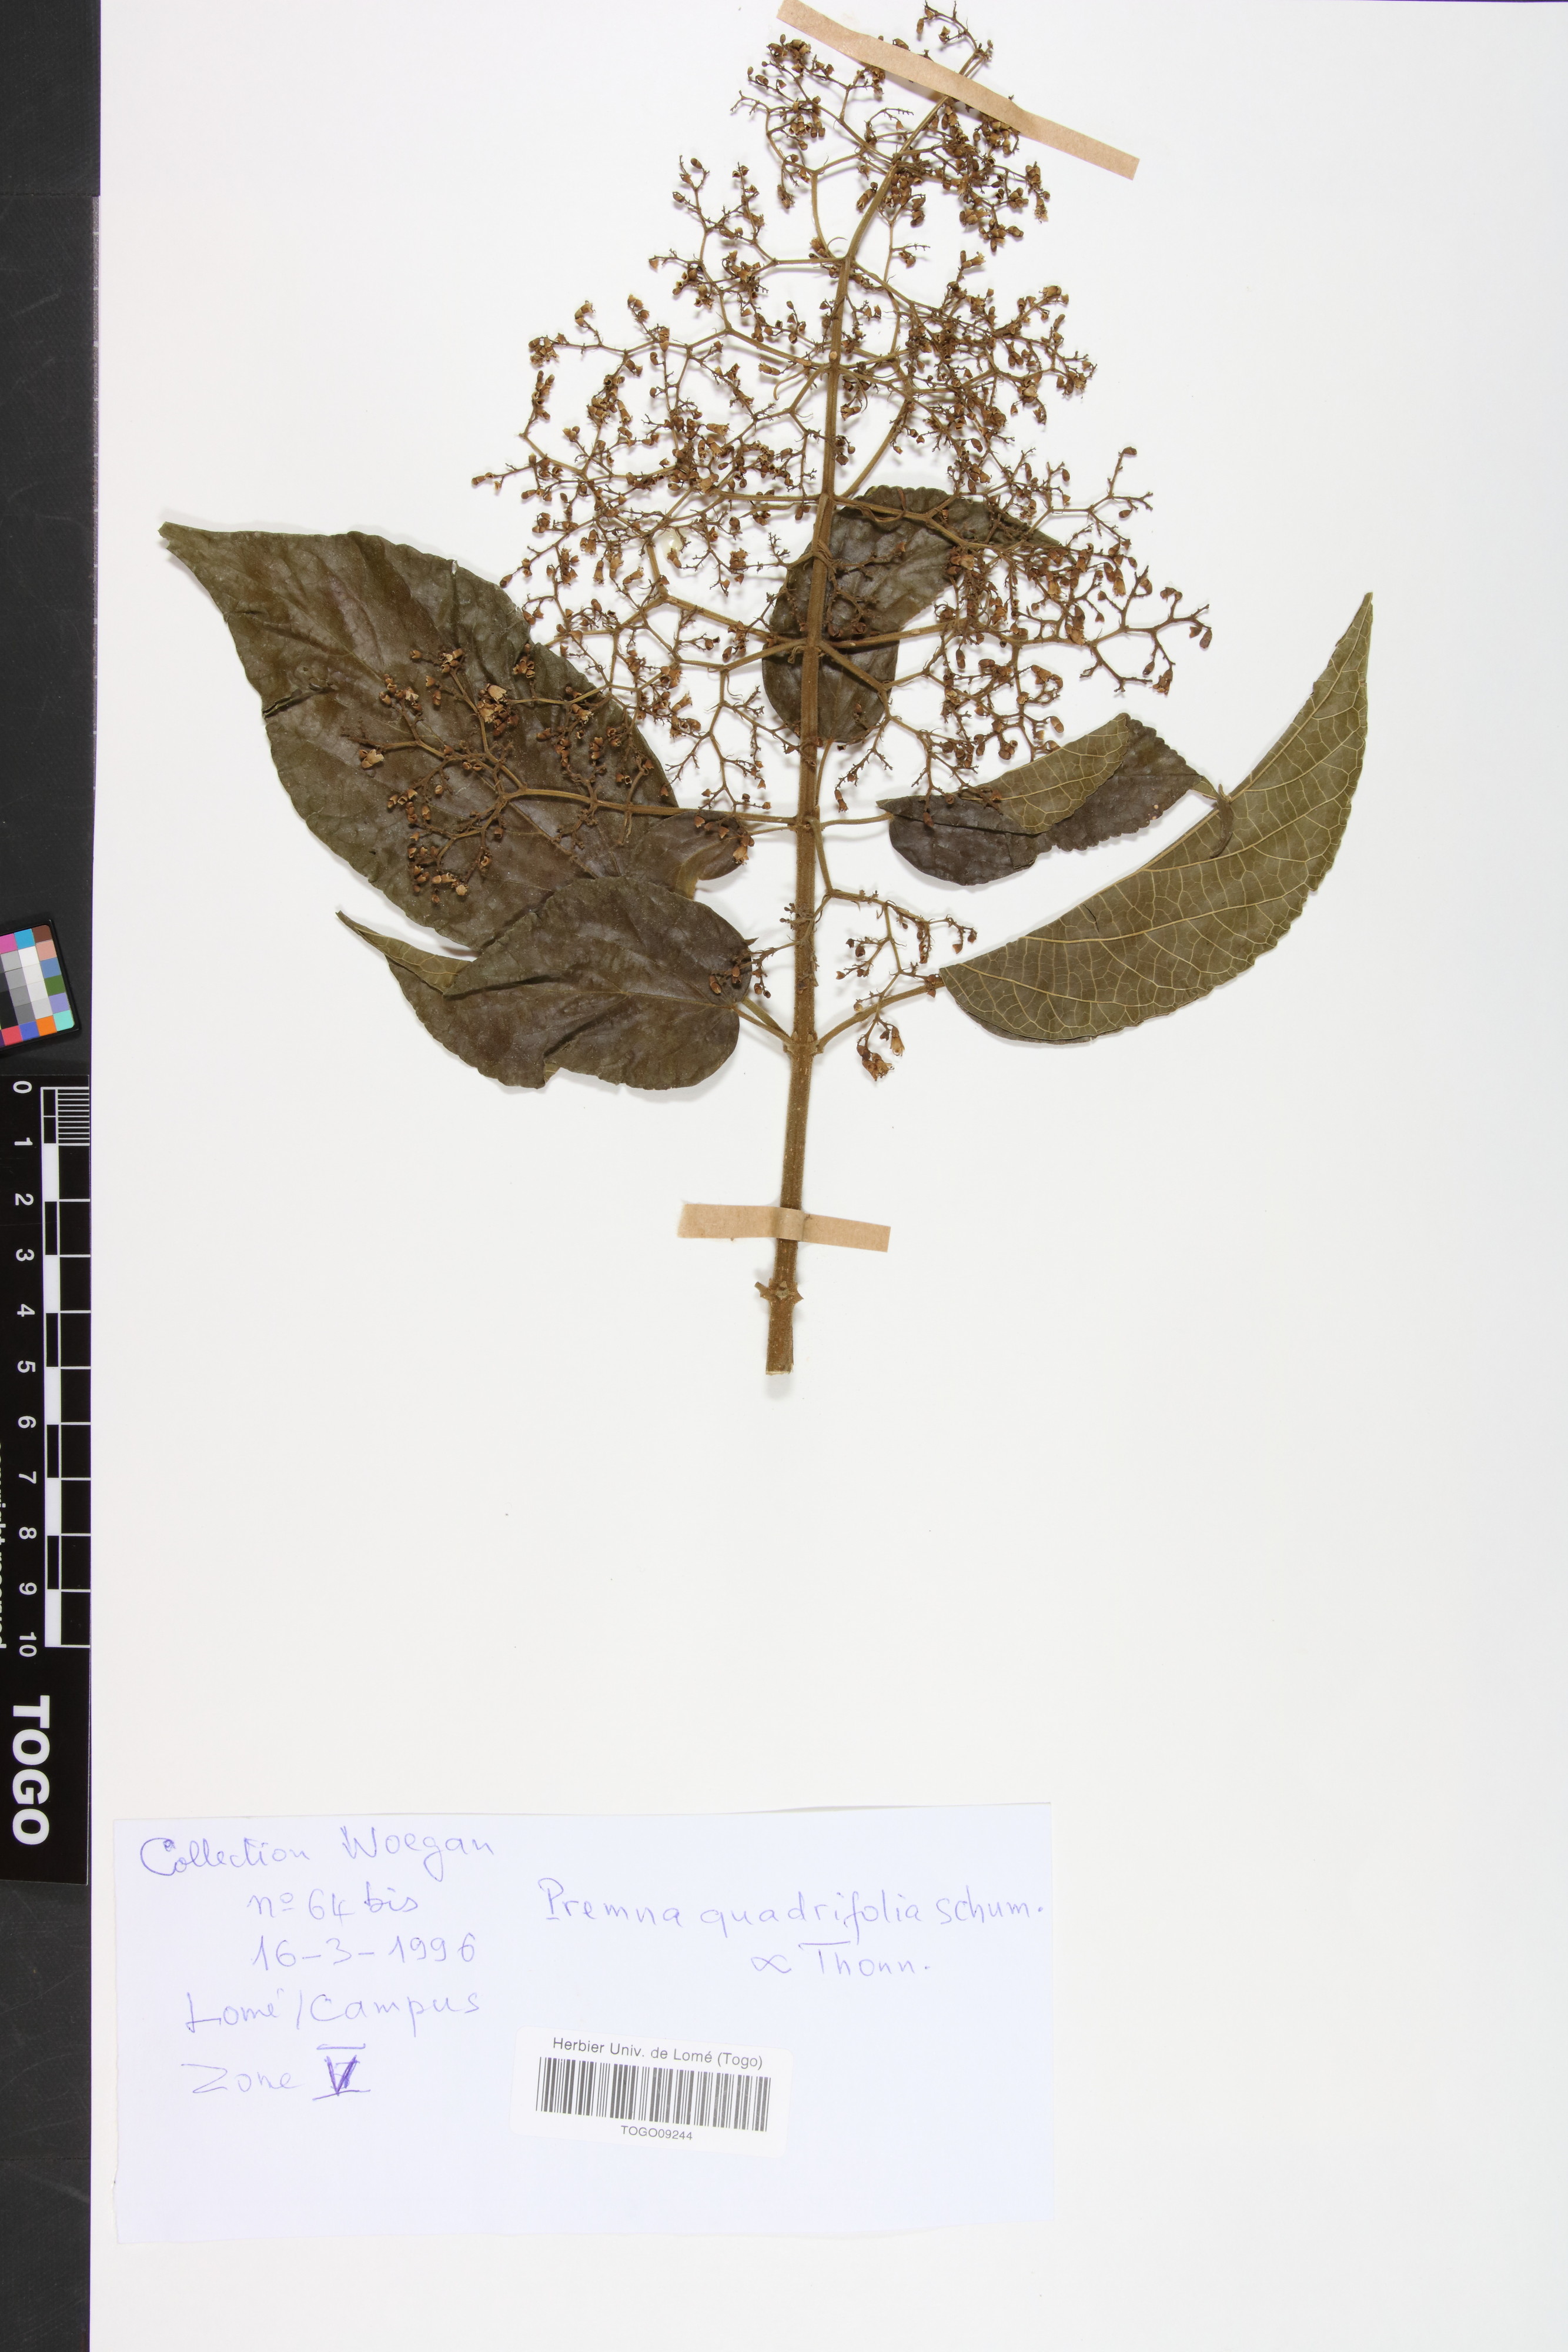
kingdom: Plantae
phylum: Tracheophyta
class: Magnoliopsida
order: Lamiales
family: Lamiaceae
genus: Premna
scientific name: Premna quadrifolia
